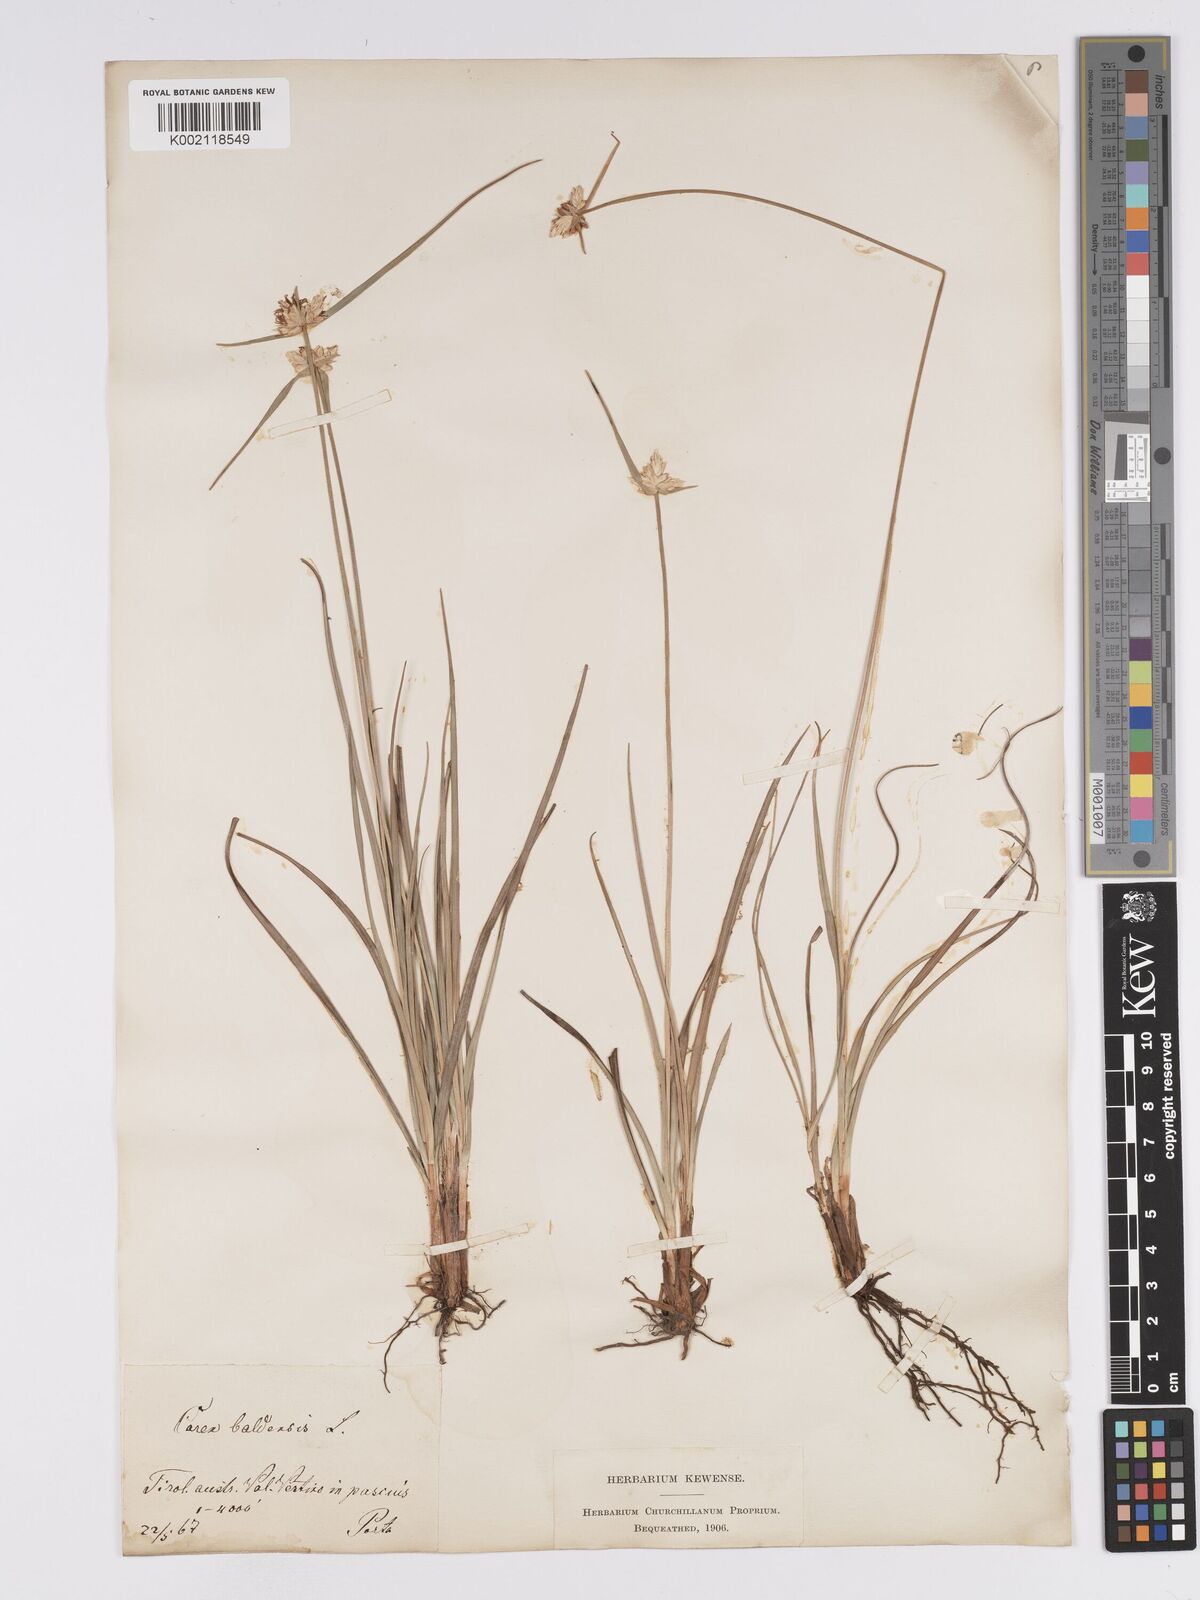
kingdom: Plantae
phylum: Tracheophyta
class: Liliopsida
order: Poales
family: Cyperaceae
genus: Carex
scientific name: Carex baldensis
